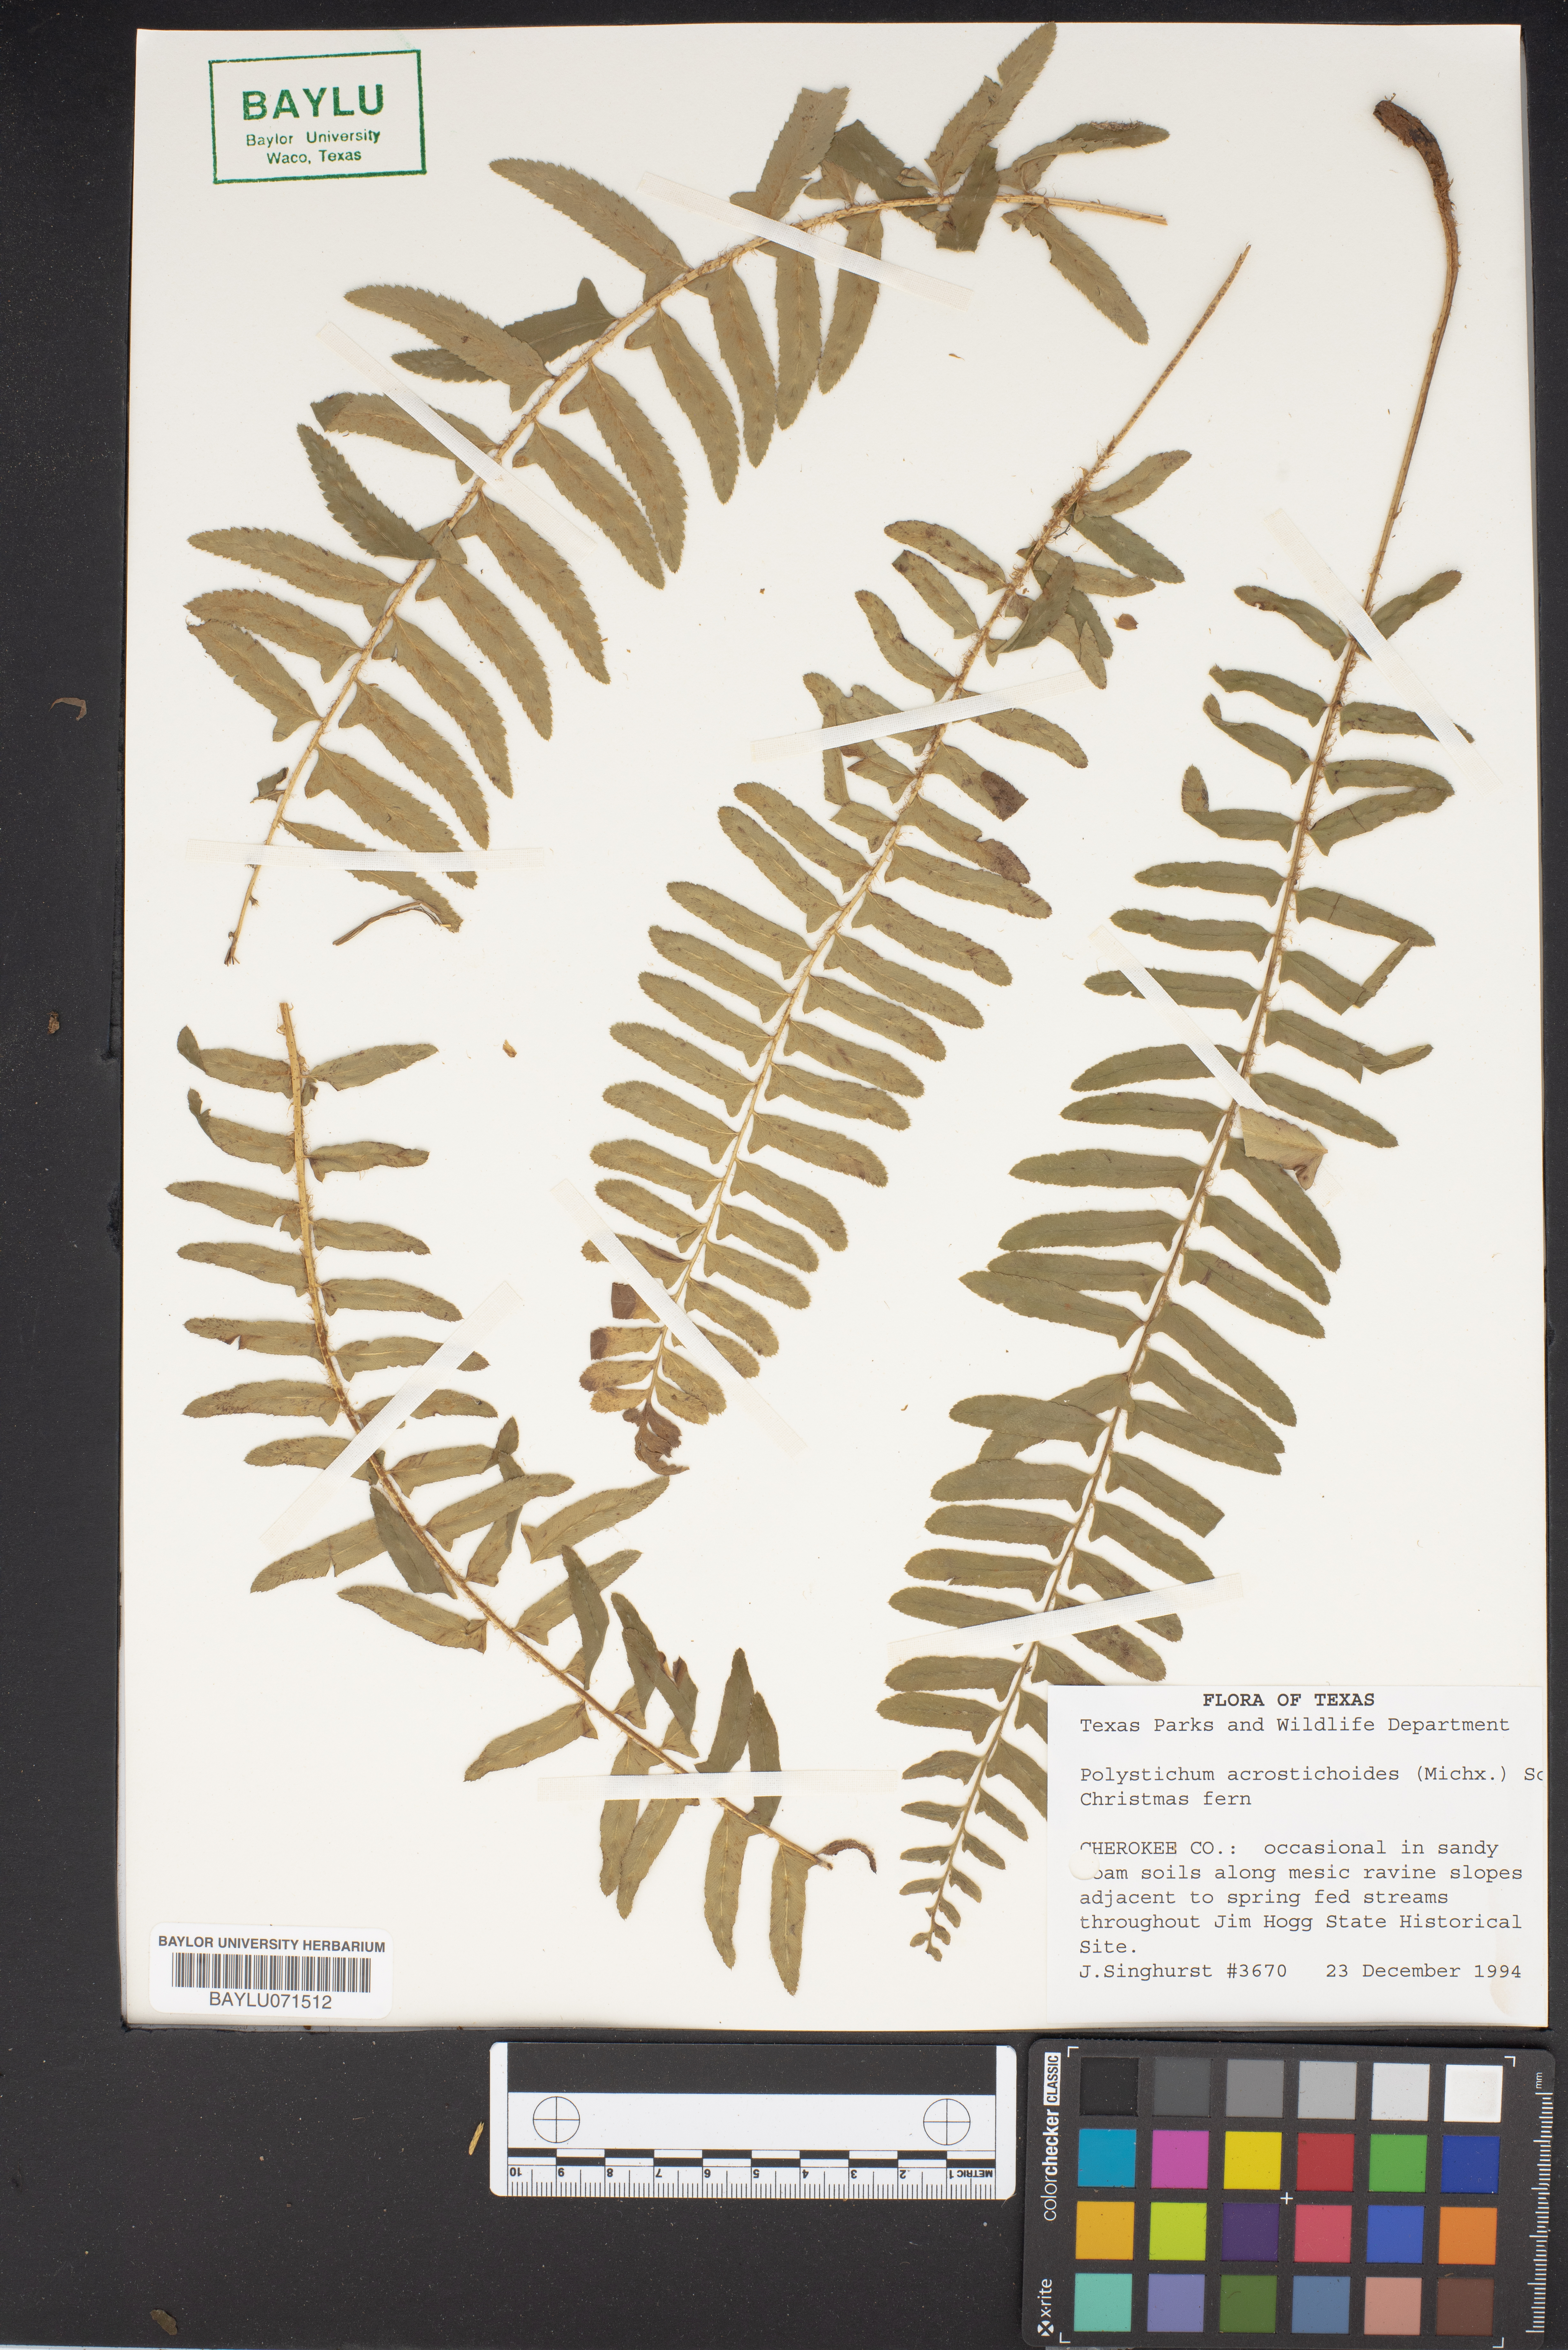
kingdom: Plantae
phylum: Tracheophyta
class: Polypodiopsida
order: Polypodiales
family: Dryopteridaceae
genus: Polystichum
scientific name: Polystichum acrostichoides
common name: Christmas fern
